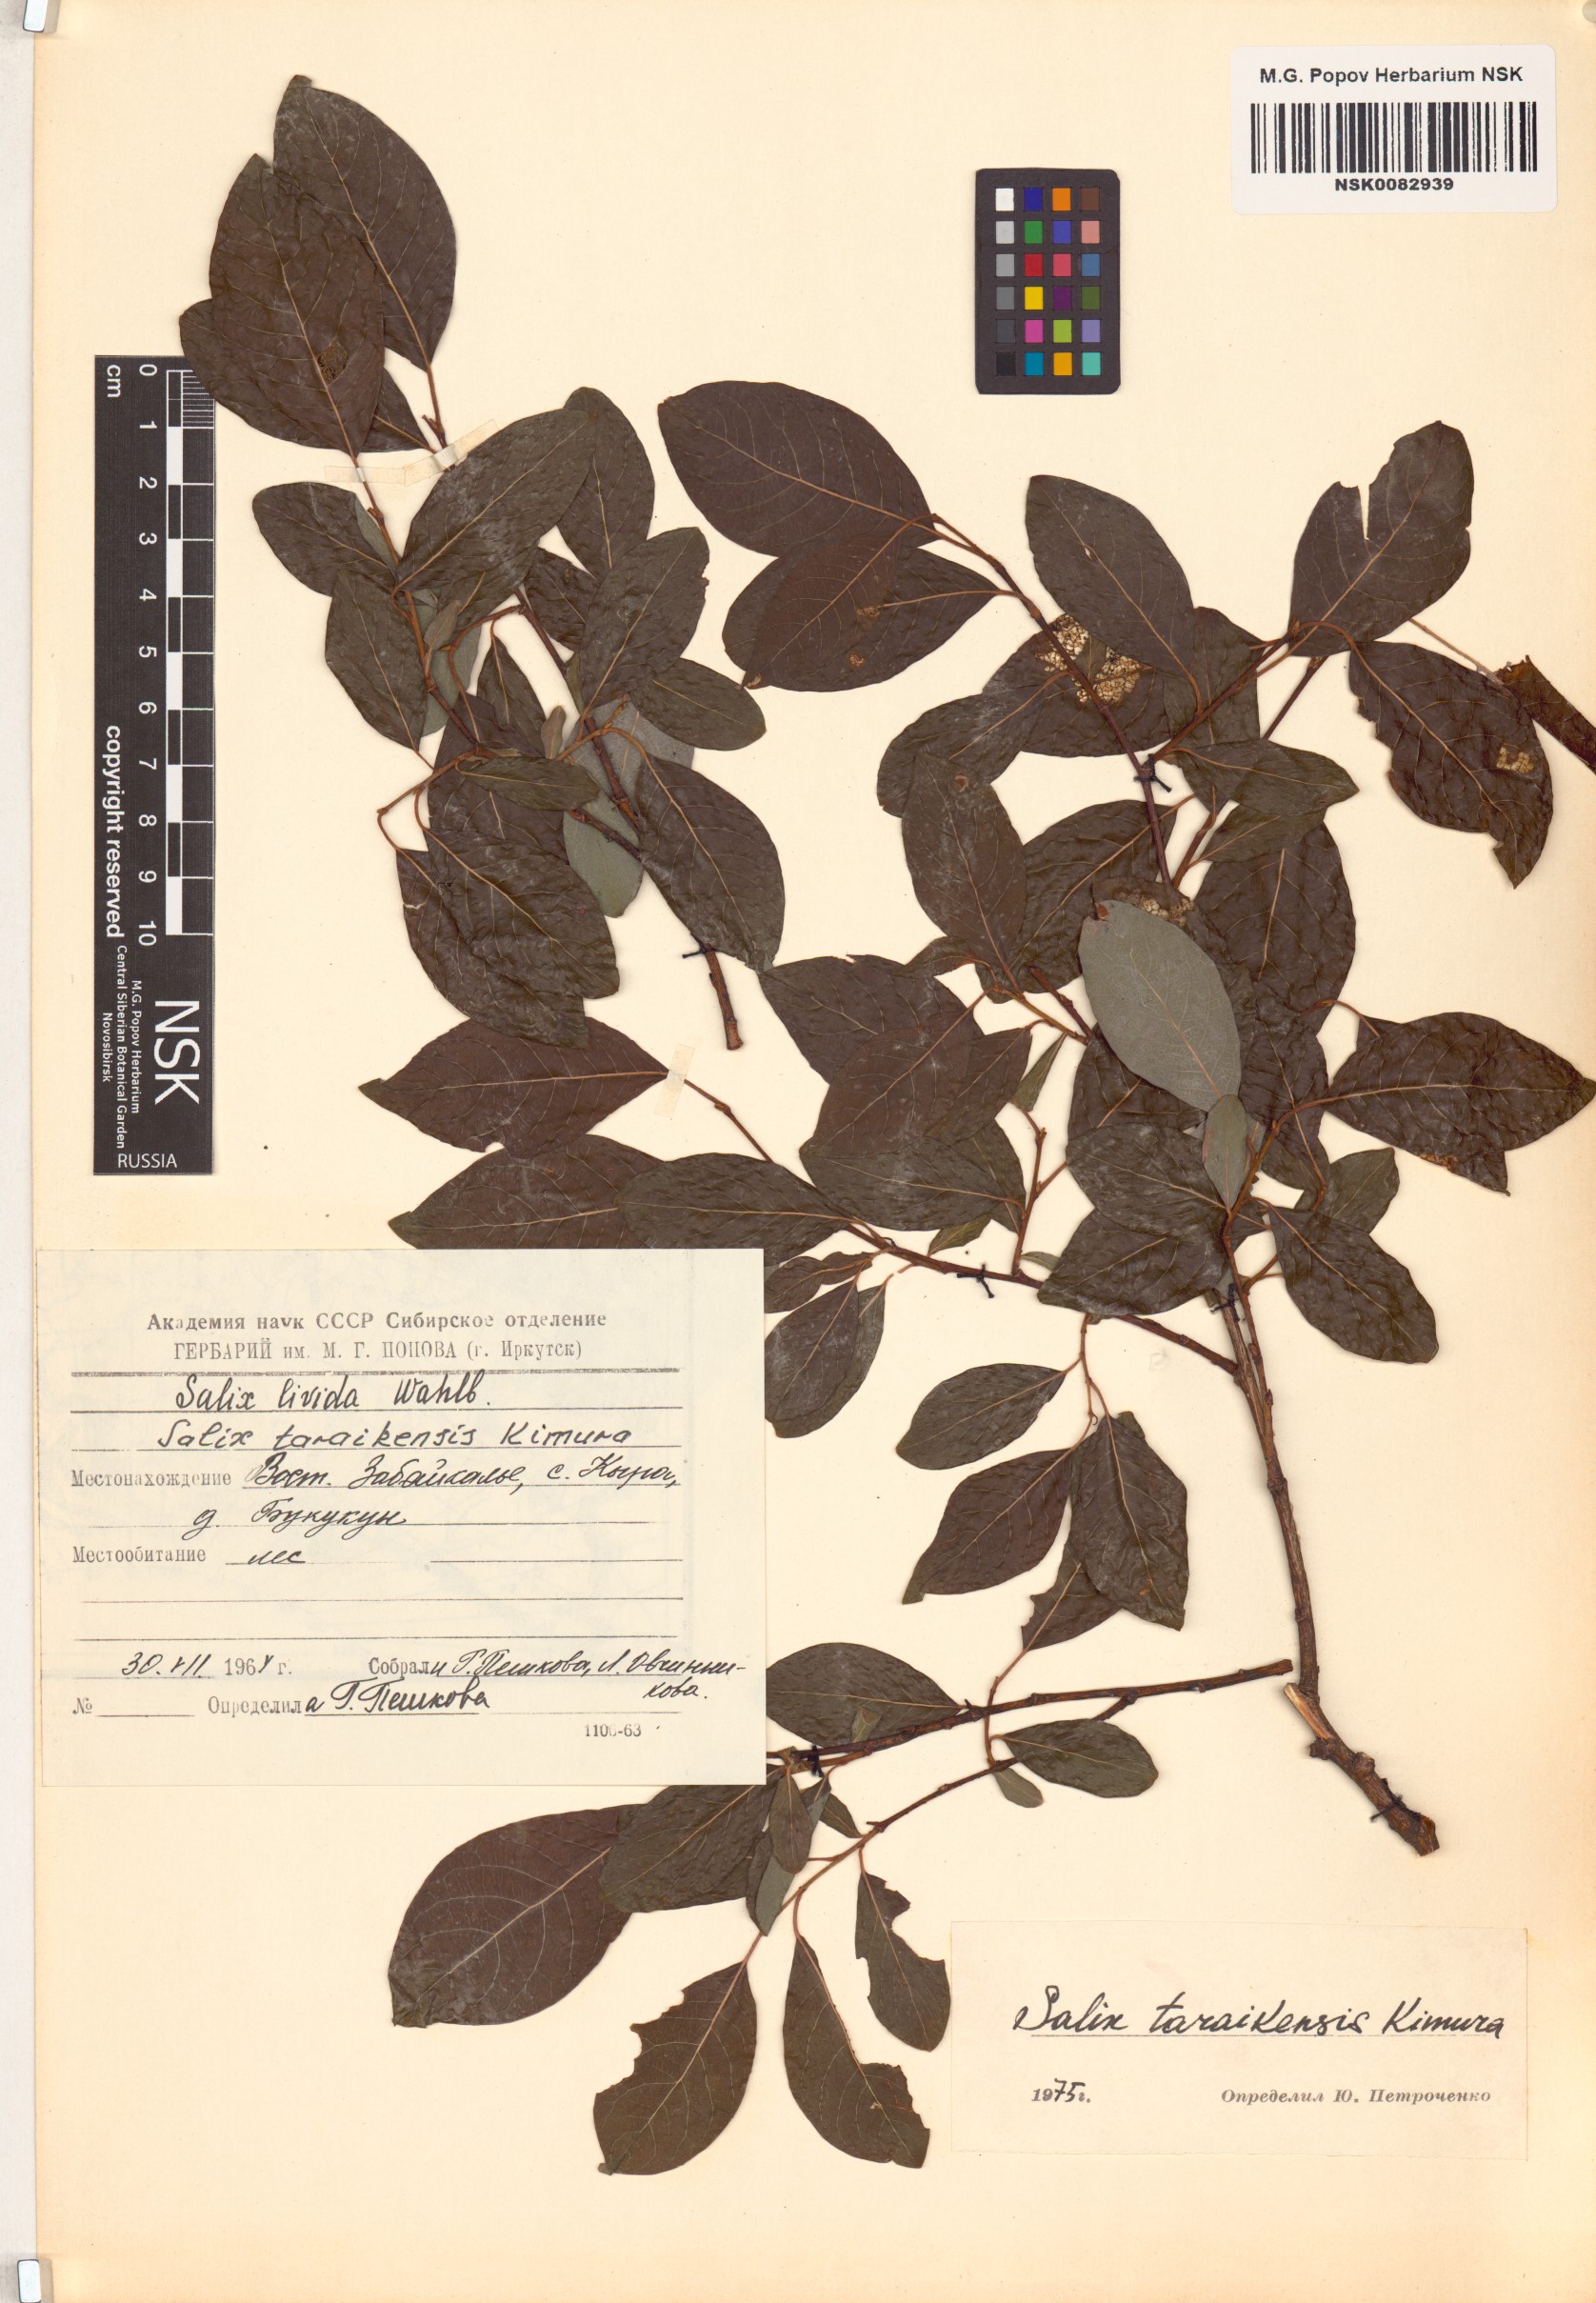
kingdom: Plantae
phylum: Tracheophyta
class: Magnoliopsida
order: Malpighiales
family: Salicaceae
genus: Salix
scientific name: Salix taraikensis
